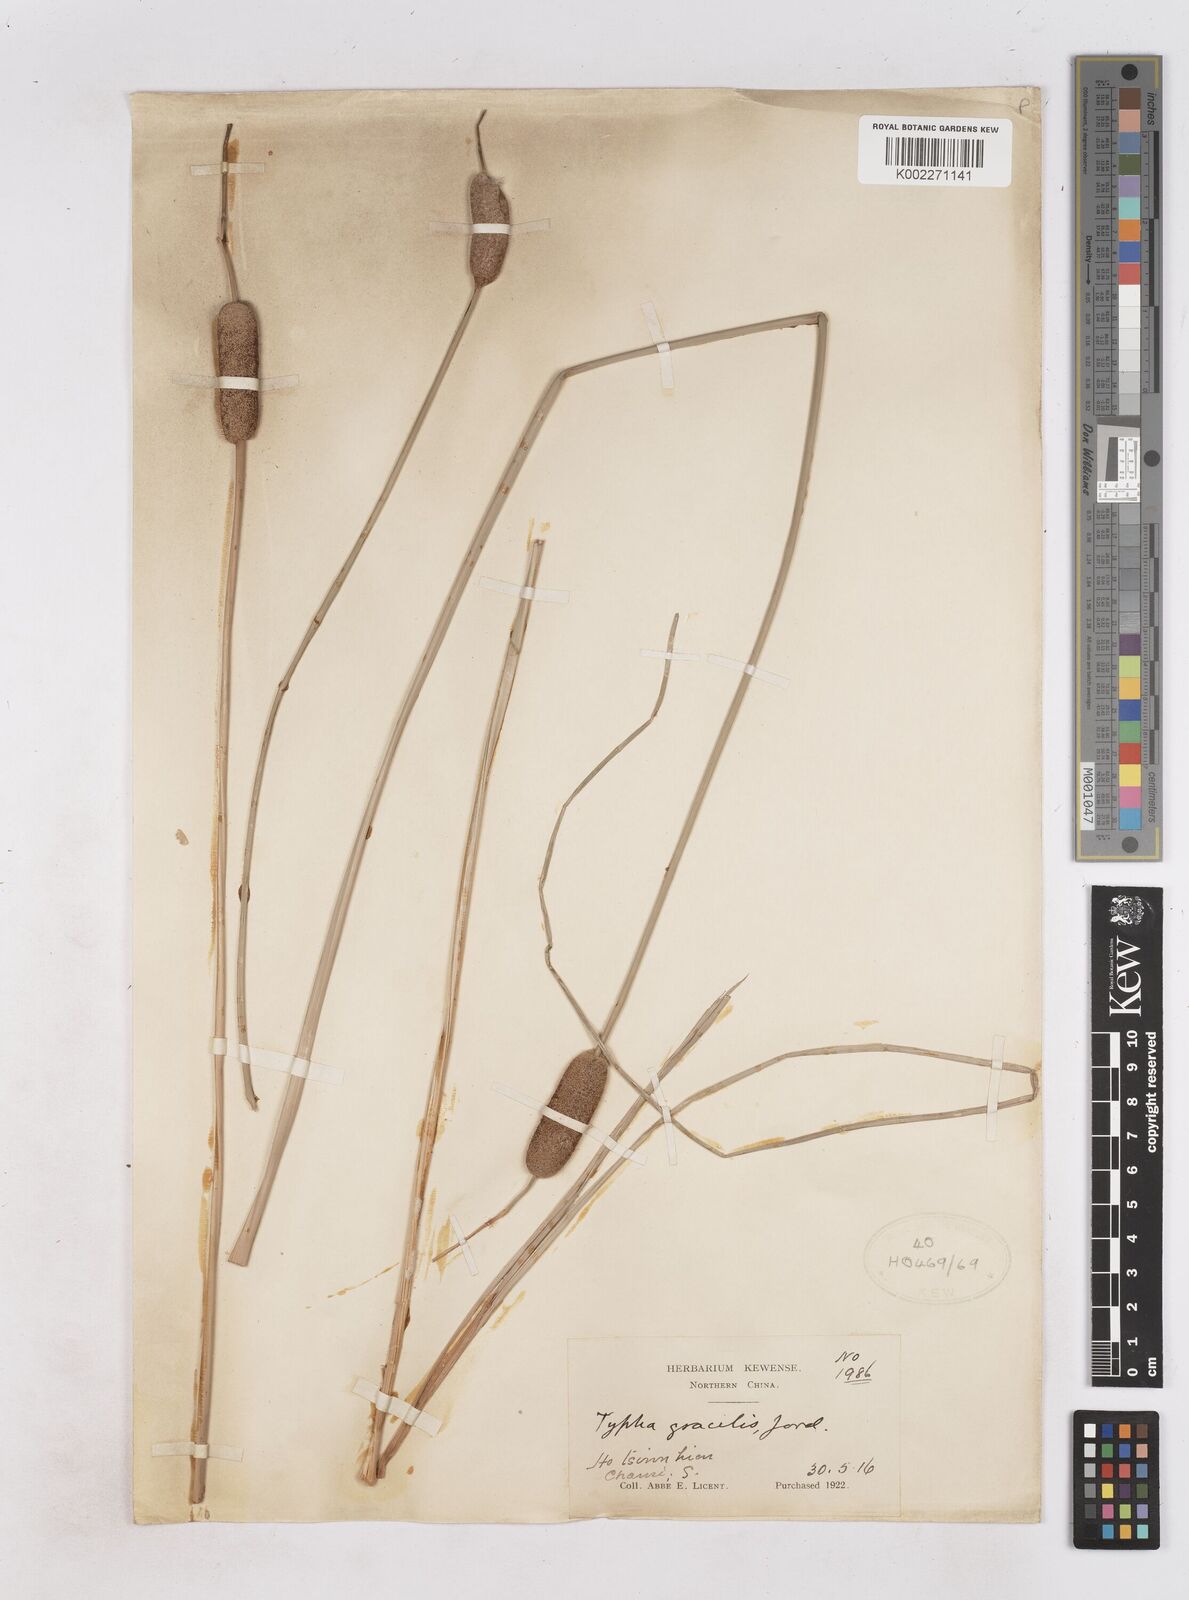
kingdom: Plantae
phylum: Tracheophyta
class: Liliopsida
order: Poales
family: Typhaceae
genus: Typha
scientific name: Typha lugdunensis
